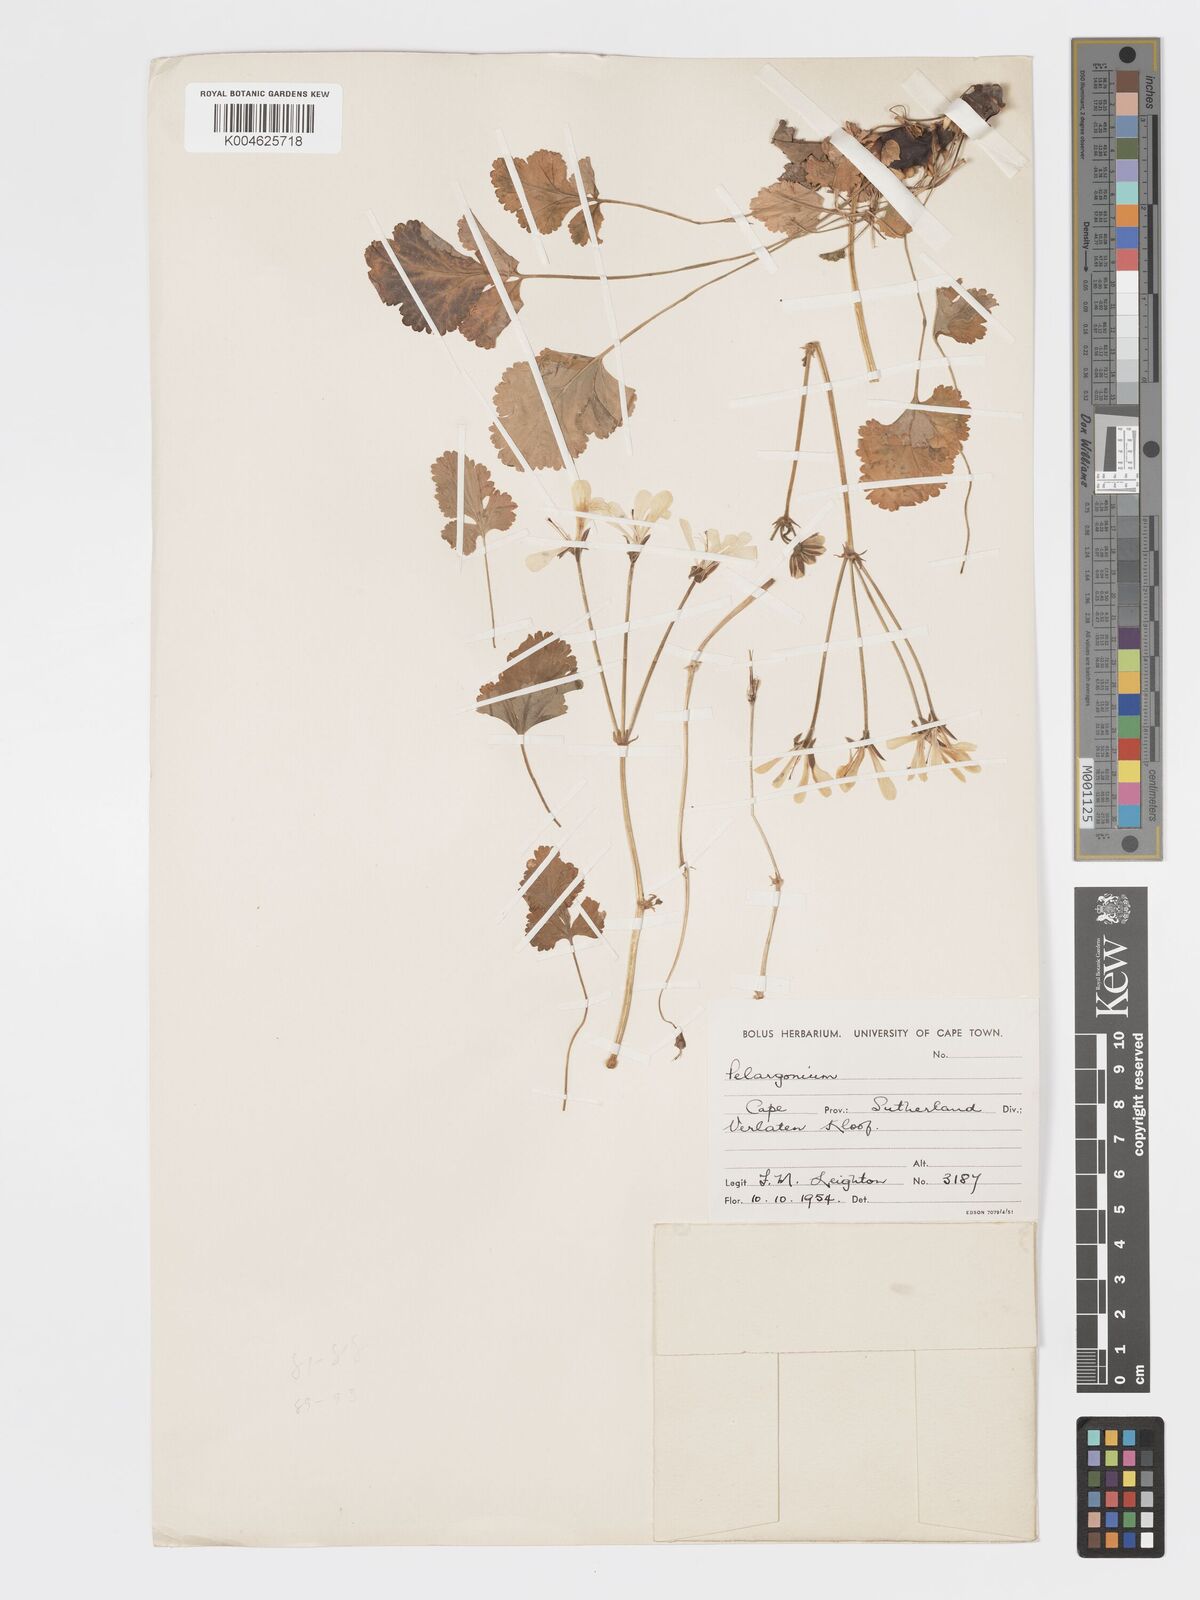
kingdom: Plantae
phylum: Tracheophyta
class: Magnoliopsida
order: Geraniales
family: Geraniaceae
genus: Pelargonium
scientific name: Pelargonium stipulaceum
